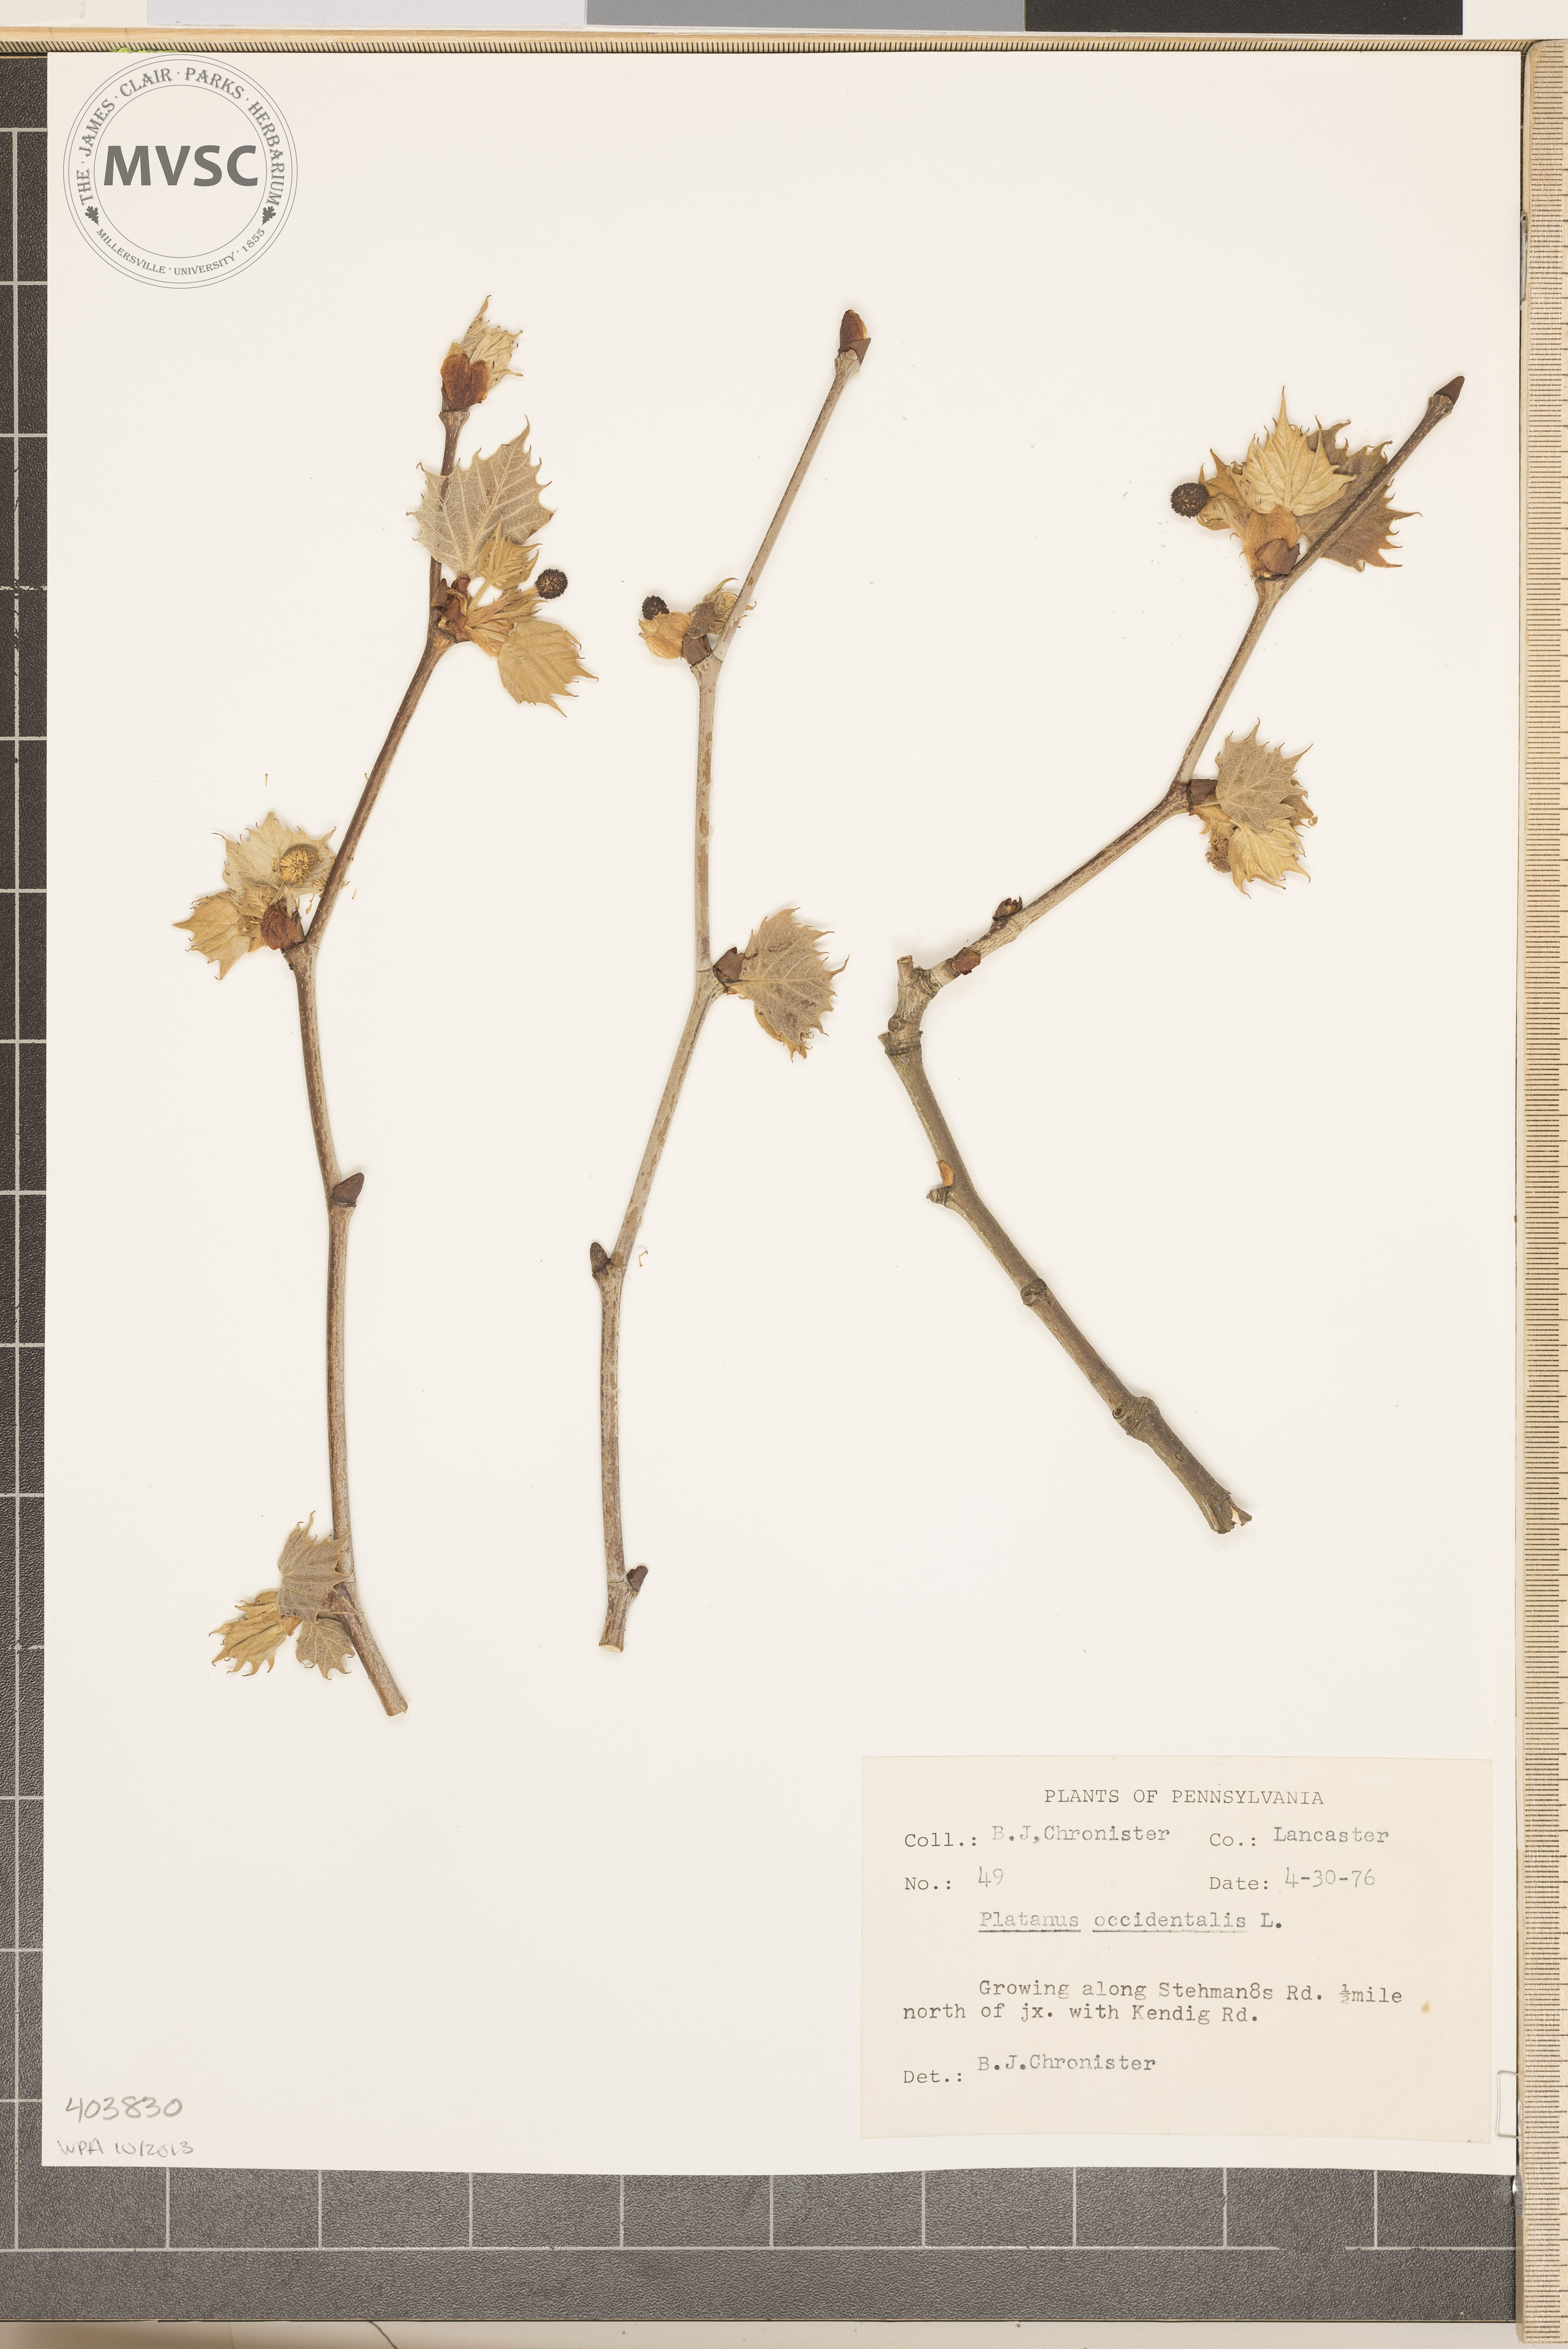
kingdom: Plantae
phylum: Tracheophyta
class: Magnoliopsida
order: Proteales
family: Platanaceae
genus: Platanus
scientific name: Platanus occidentalis
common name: American sycamore
